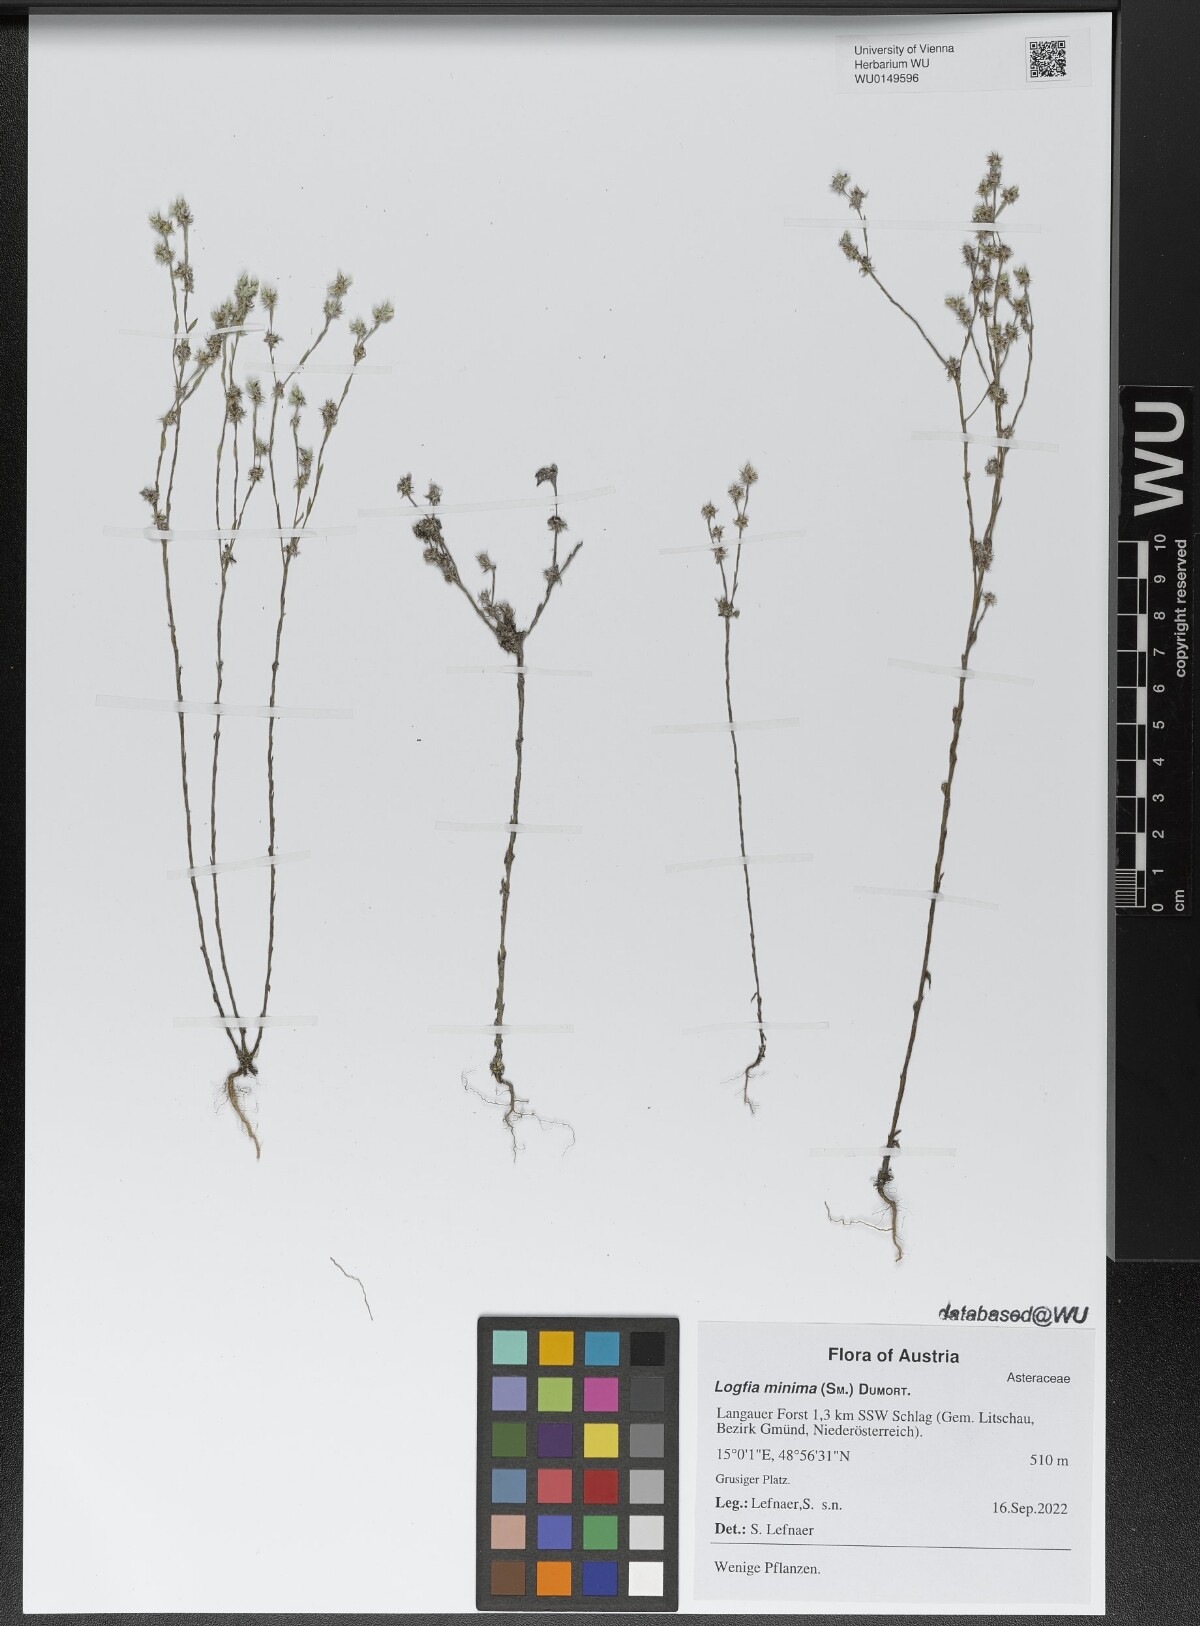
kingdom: Plantae
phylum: Tracheophyta
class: Magnoliopsida
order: Asterales
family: Asteraceae
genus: Logfia
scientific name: Logfia minima
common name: Little cottonrose
